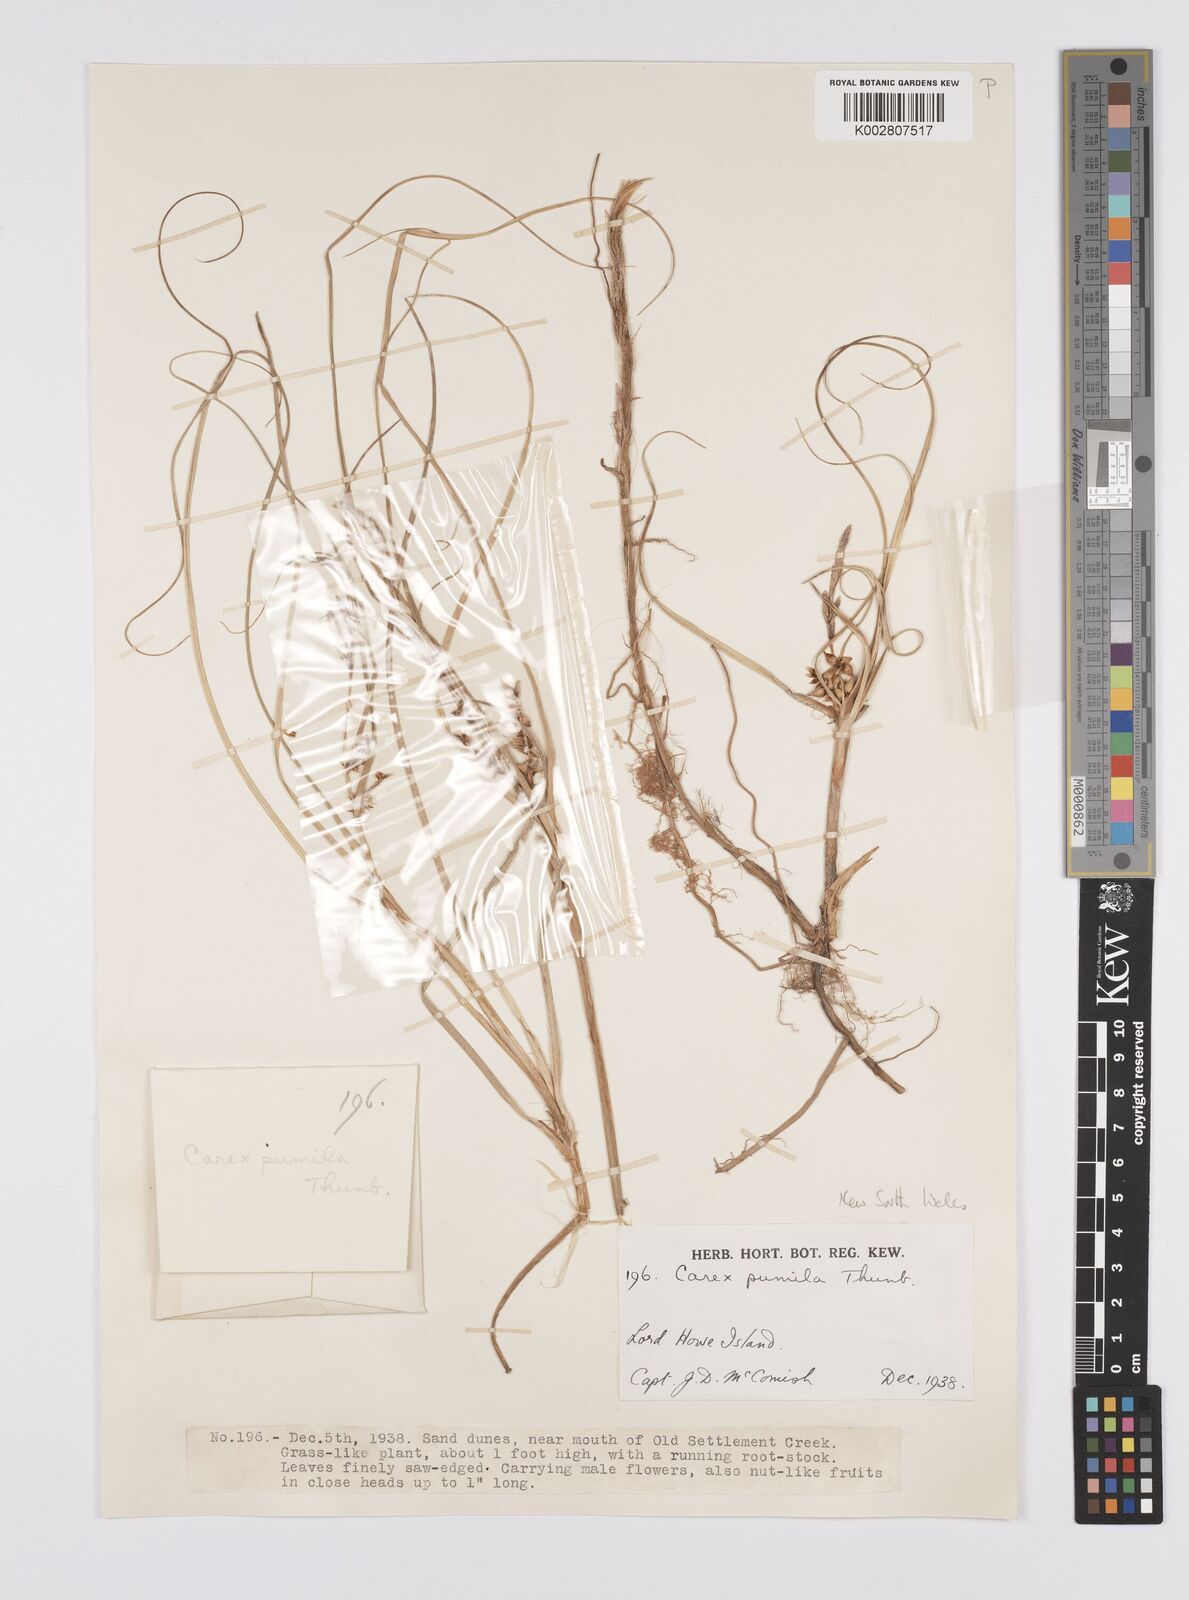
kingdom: Plantae
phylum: Tracheophyta
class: Liliopsida
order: Poales
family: Cyperaceae
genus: Carex
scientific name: Carex pumila
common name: Dwarf sedge
